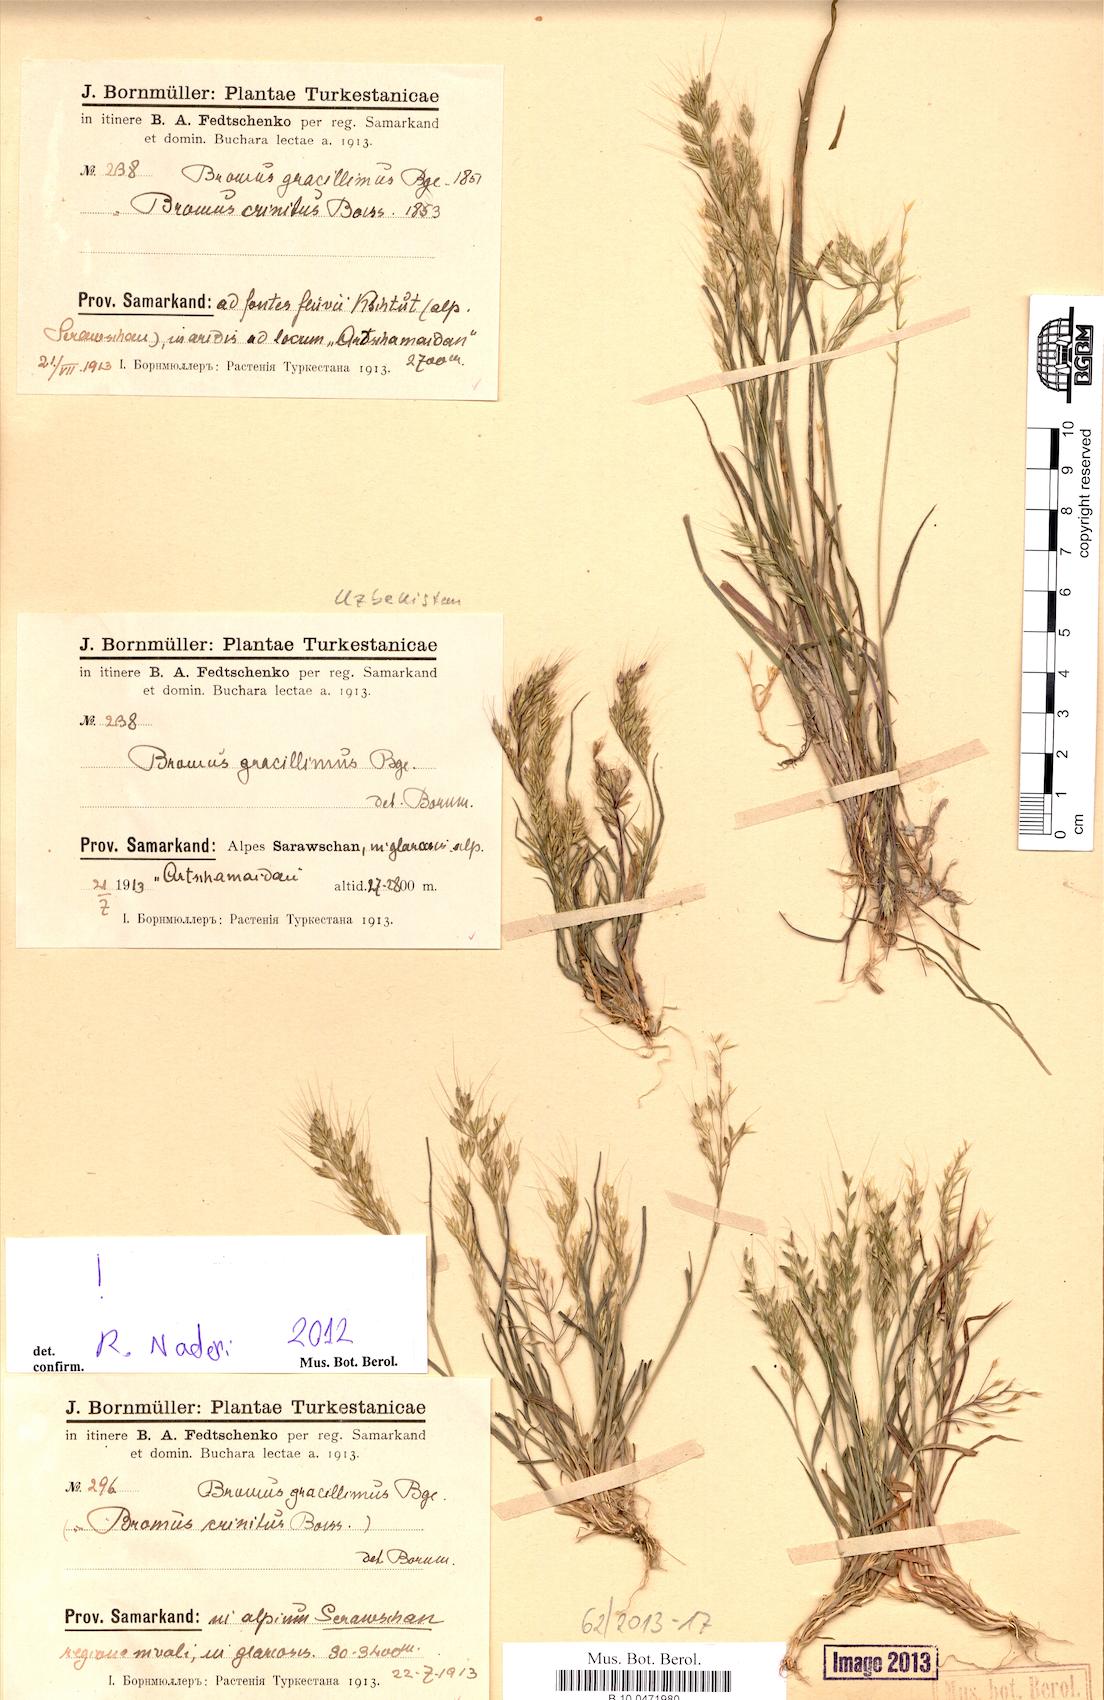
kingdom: Plantae
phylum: Tracheophyta
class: Liliopsida
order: Poales
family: Poaceae
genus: Bromus
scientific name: Bromus gracillimus
